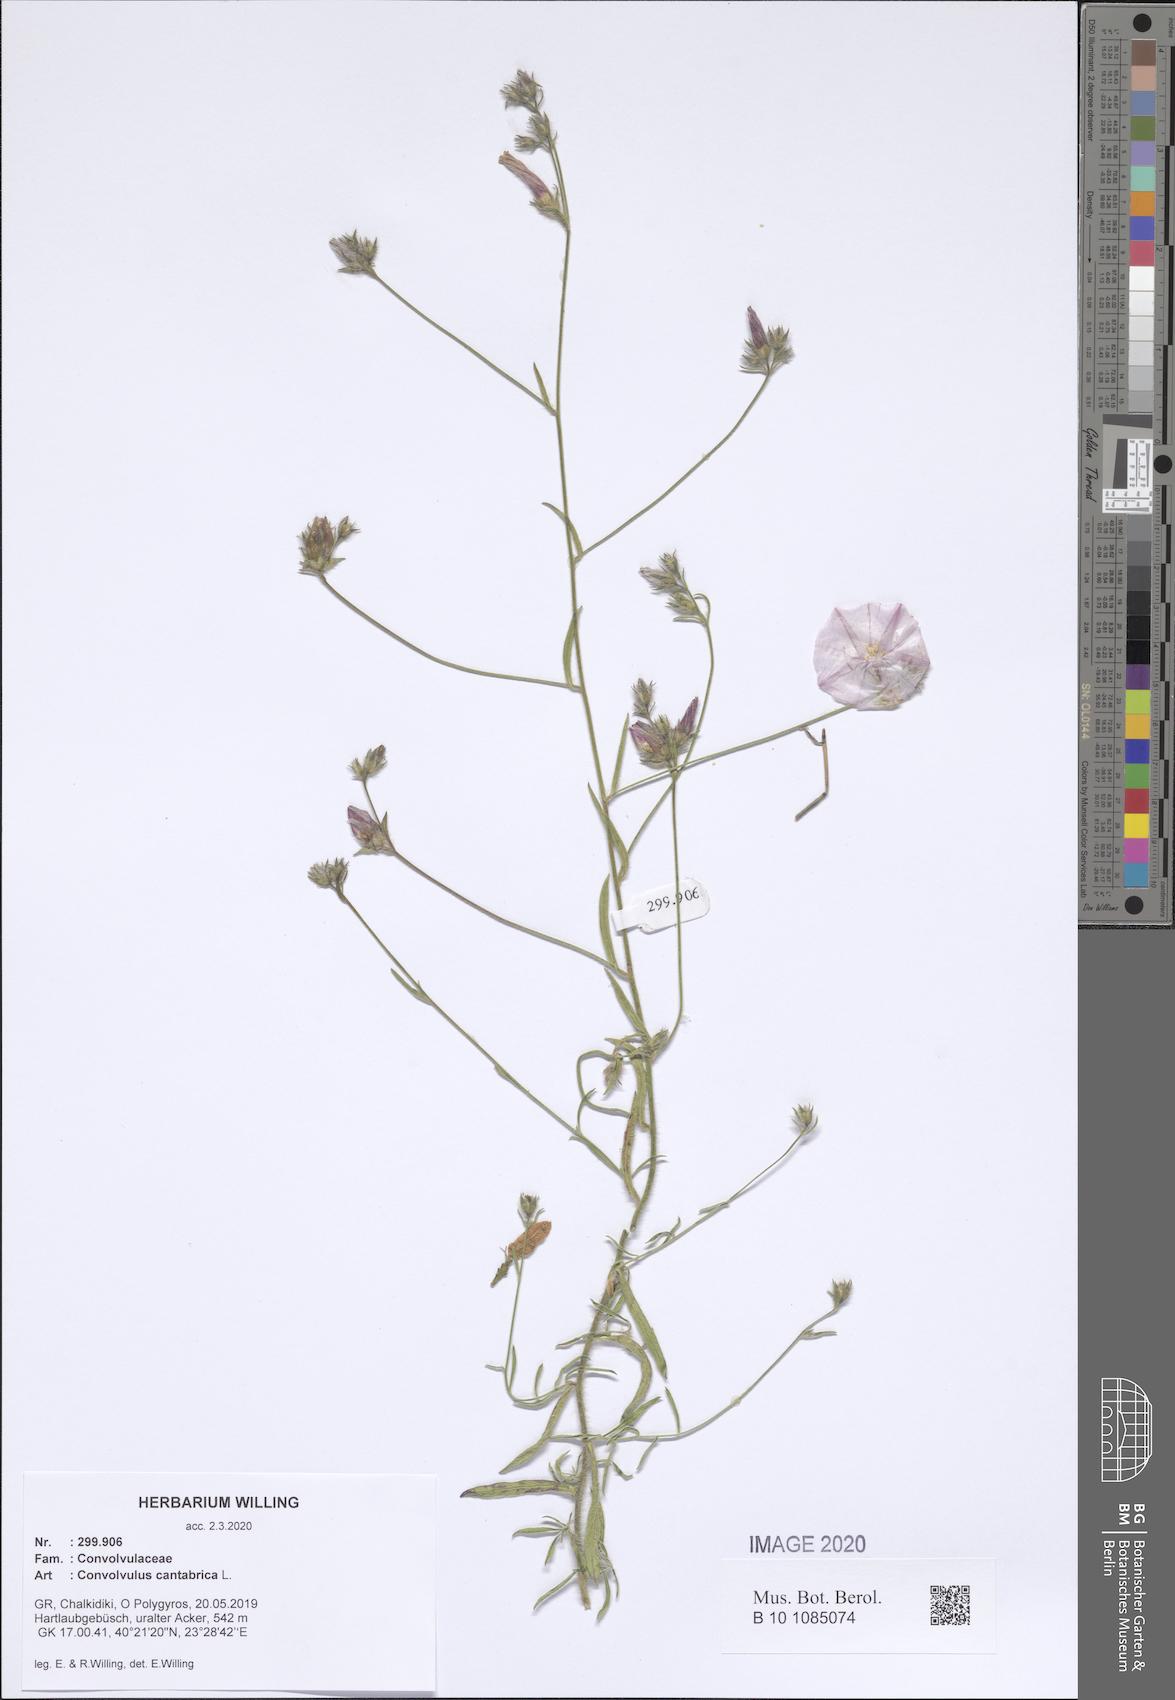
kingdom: Plantae
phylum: Tracheophyta
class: Magnoliopsida
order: Solanales
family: Convolvulaceae
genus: Convolvulus
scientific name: Convolvulus cantabrica
